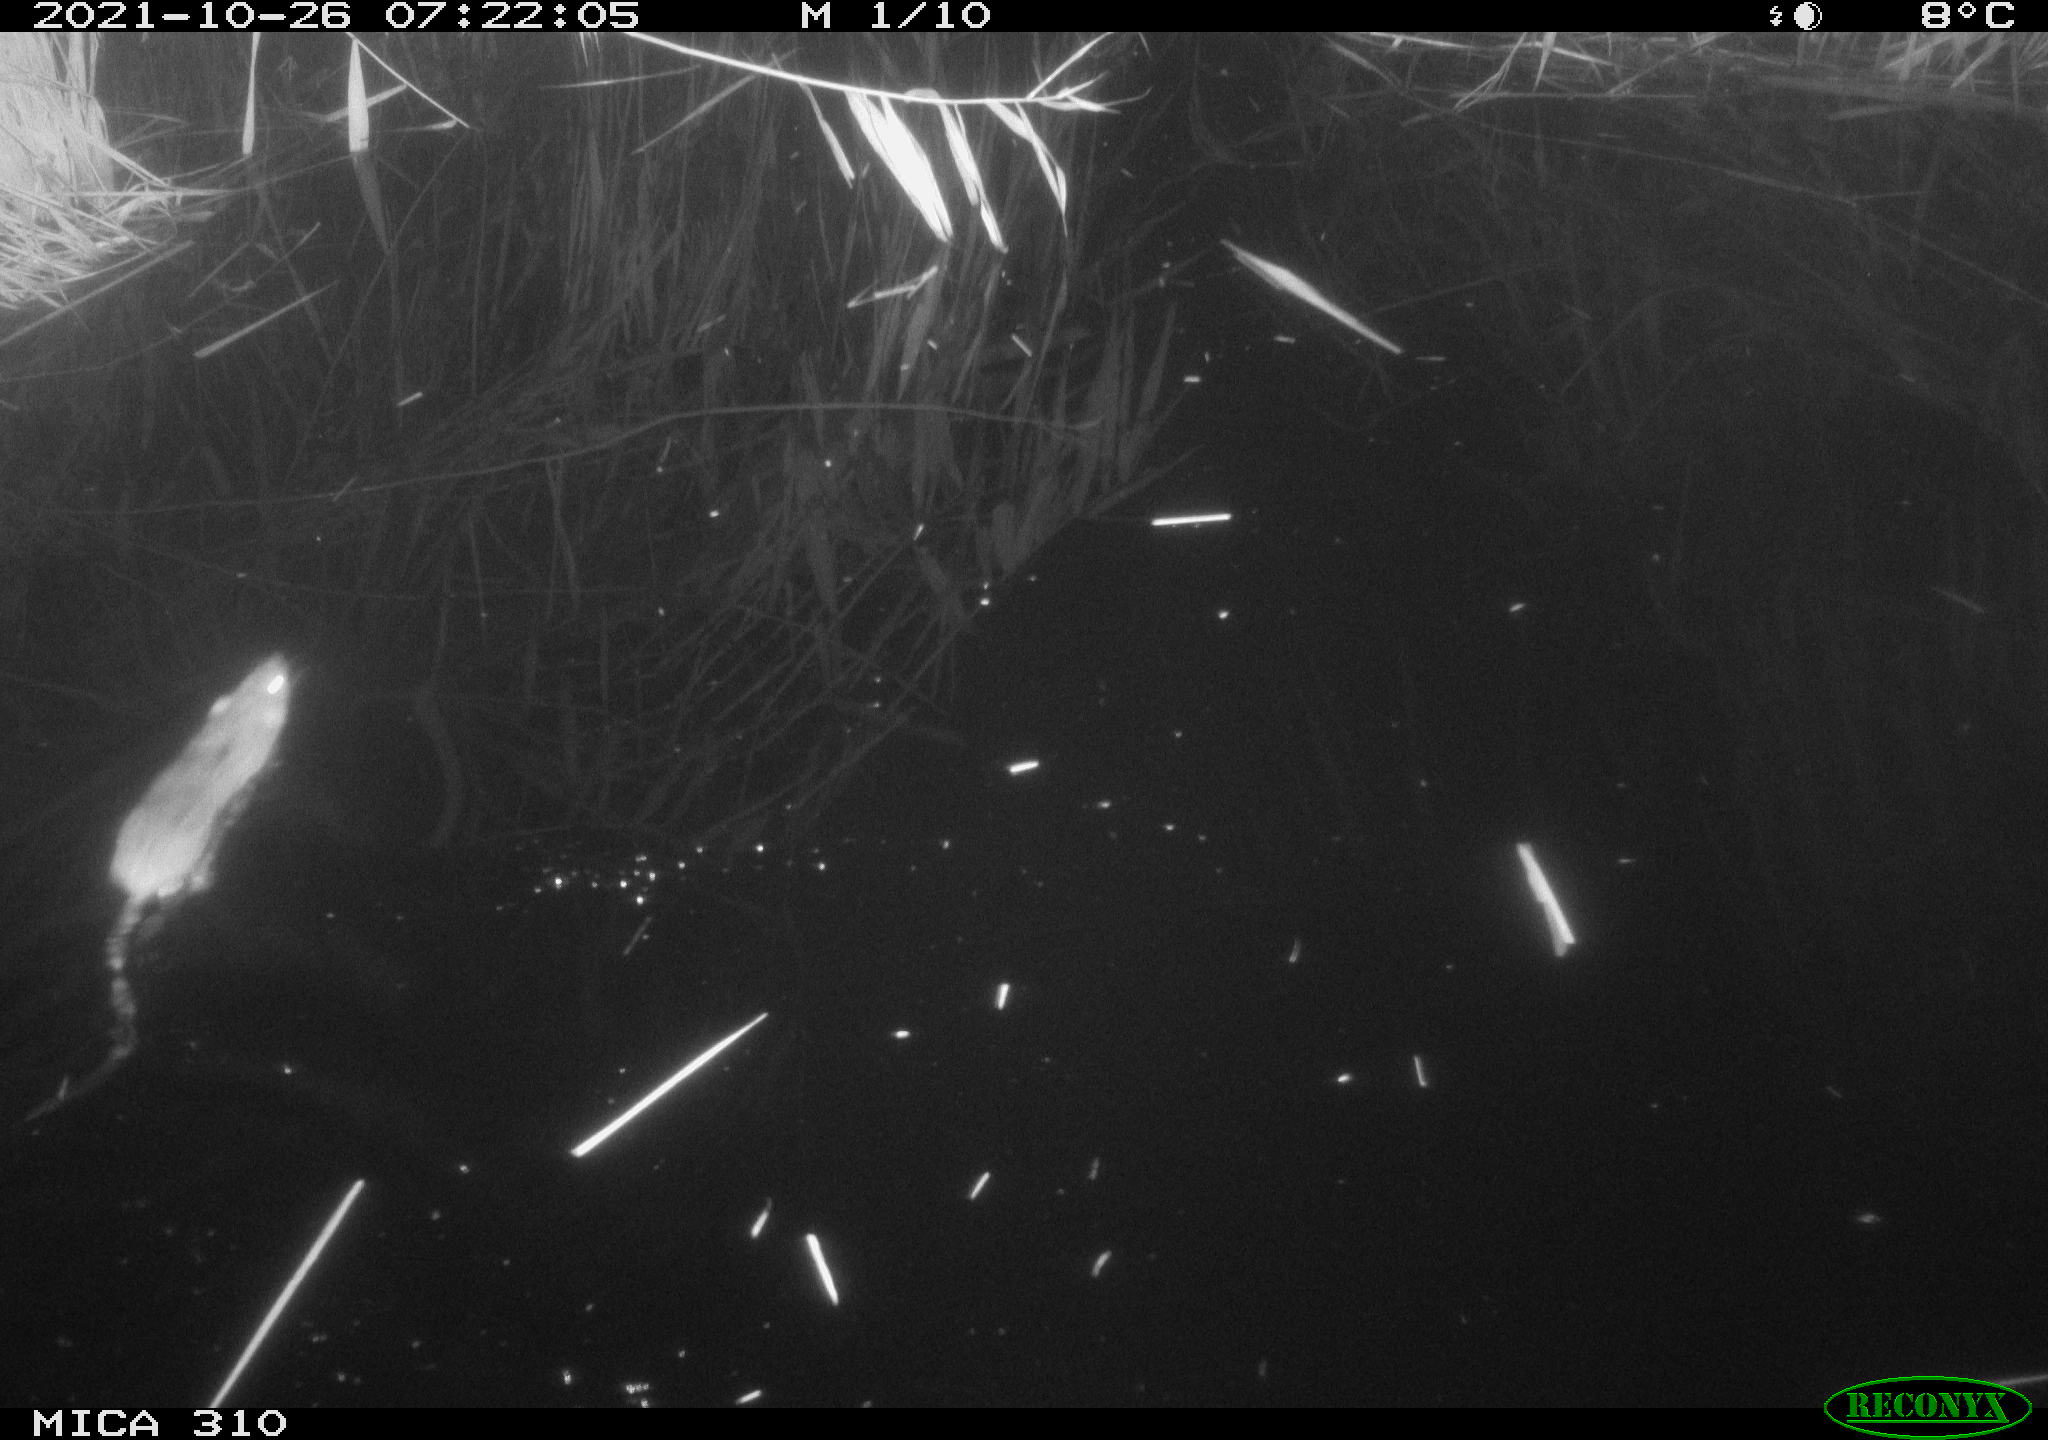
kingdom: Animalia
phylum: Chordata
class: Mammalia
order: Rodentia
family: Muridae
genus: Rattus
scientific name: Rattus norvegicus
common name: Brown rat
